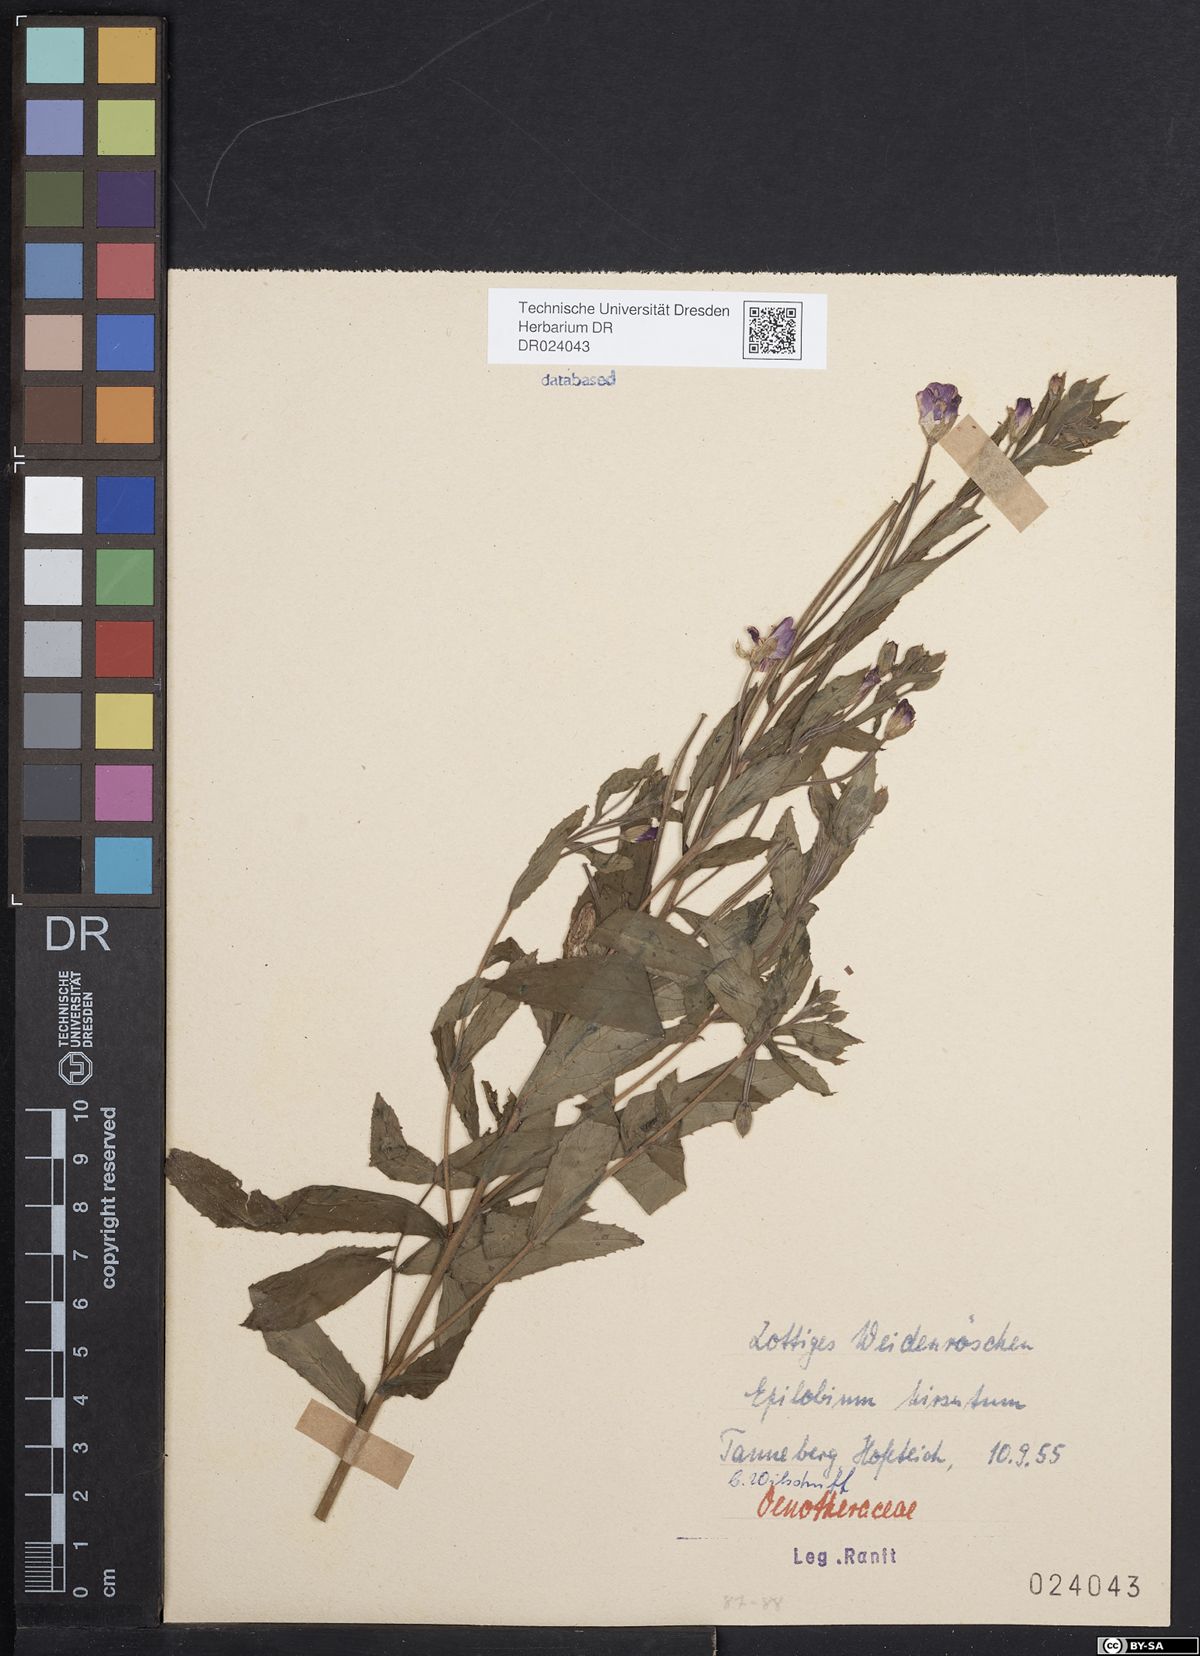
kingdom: Plantae
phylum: Tracheophyta
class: Magnoliopsida
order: Myrtales
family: Onagraceae
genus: Epilobium
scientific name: Epilobium hirsutum
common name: Great willowherb
